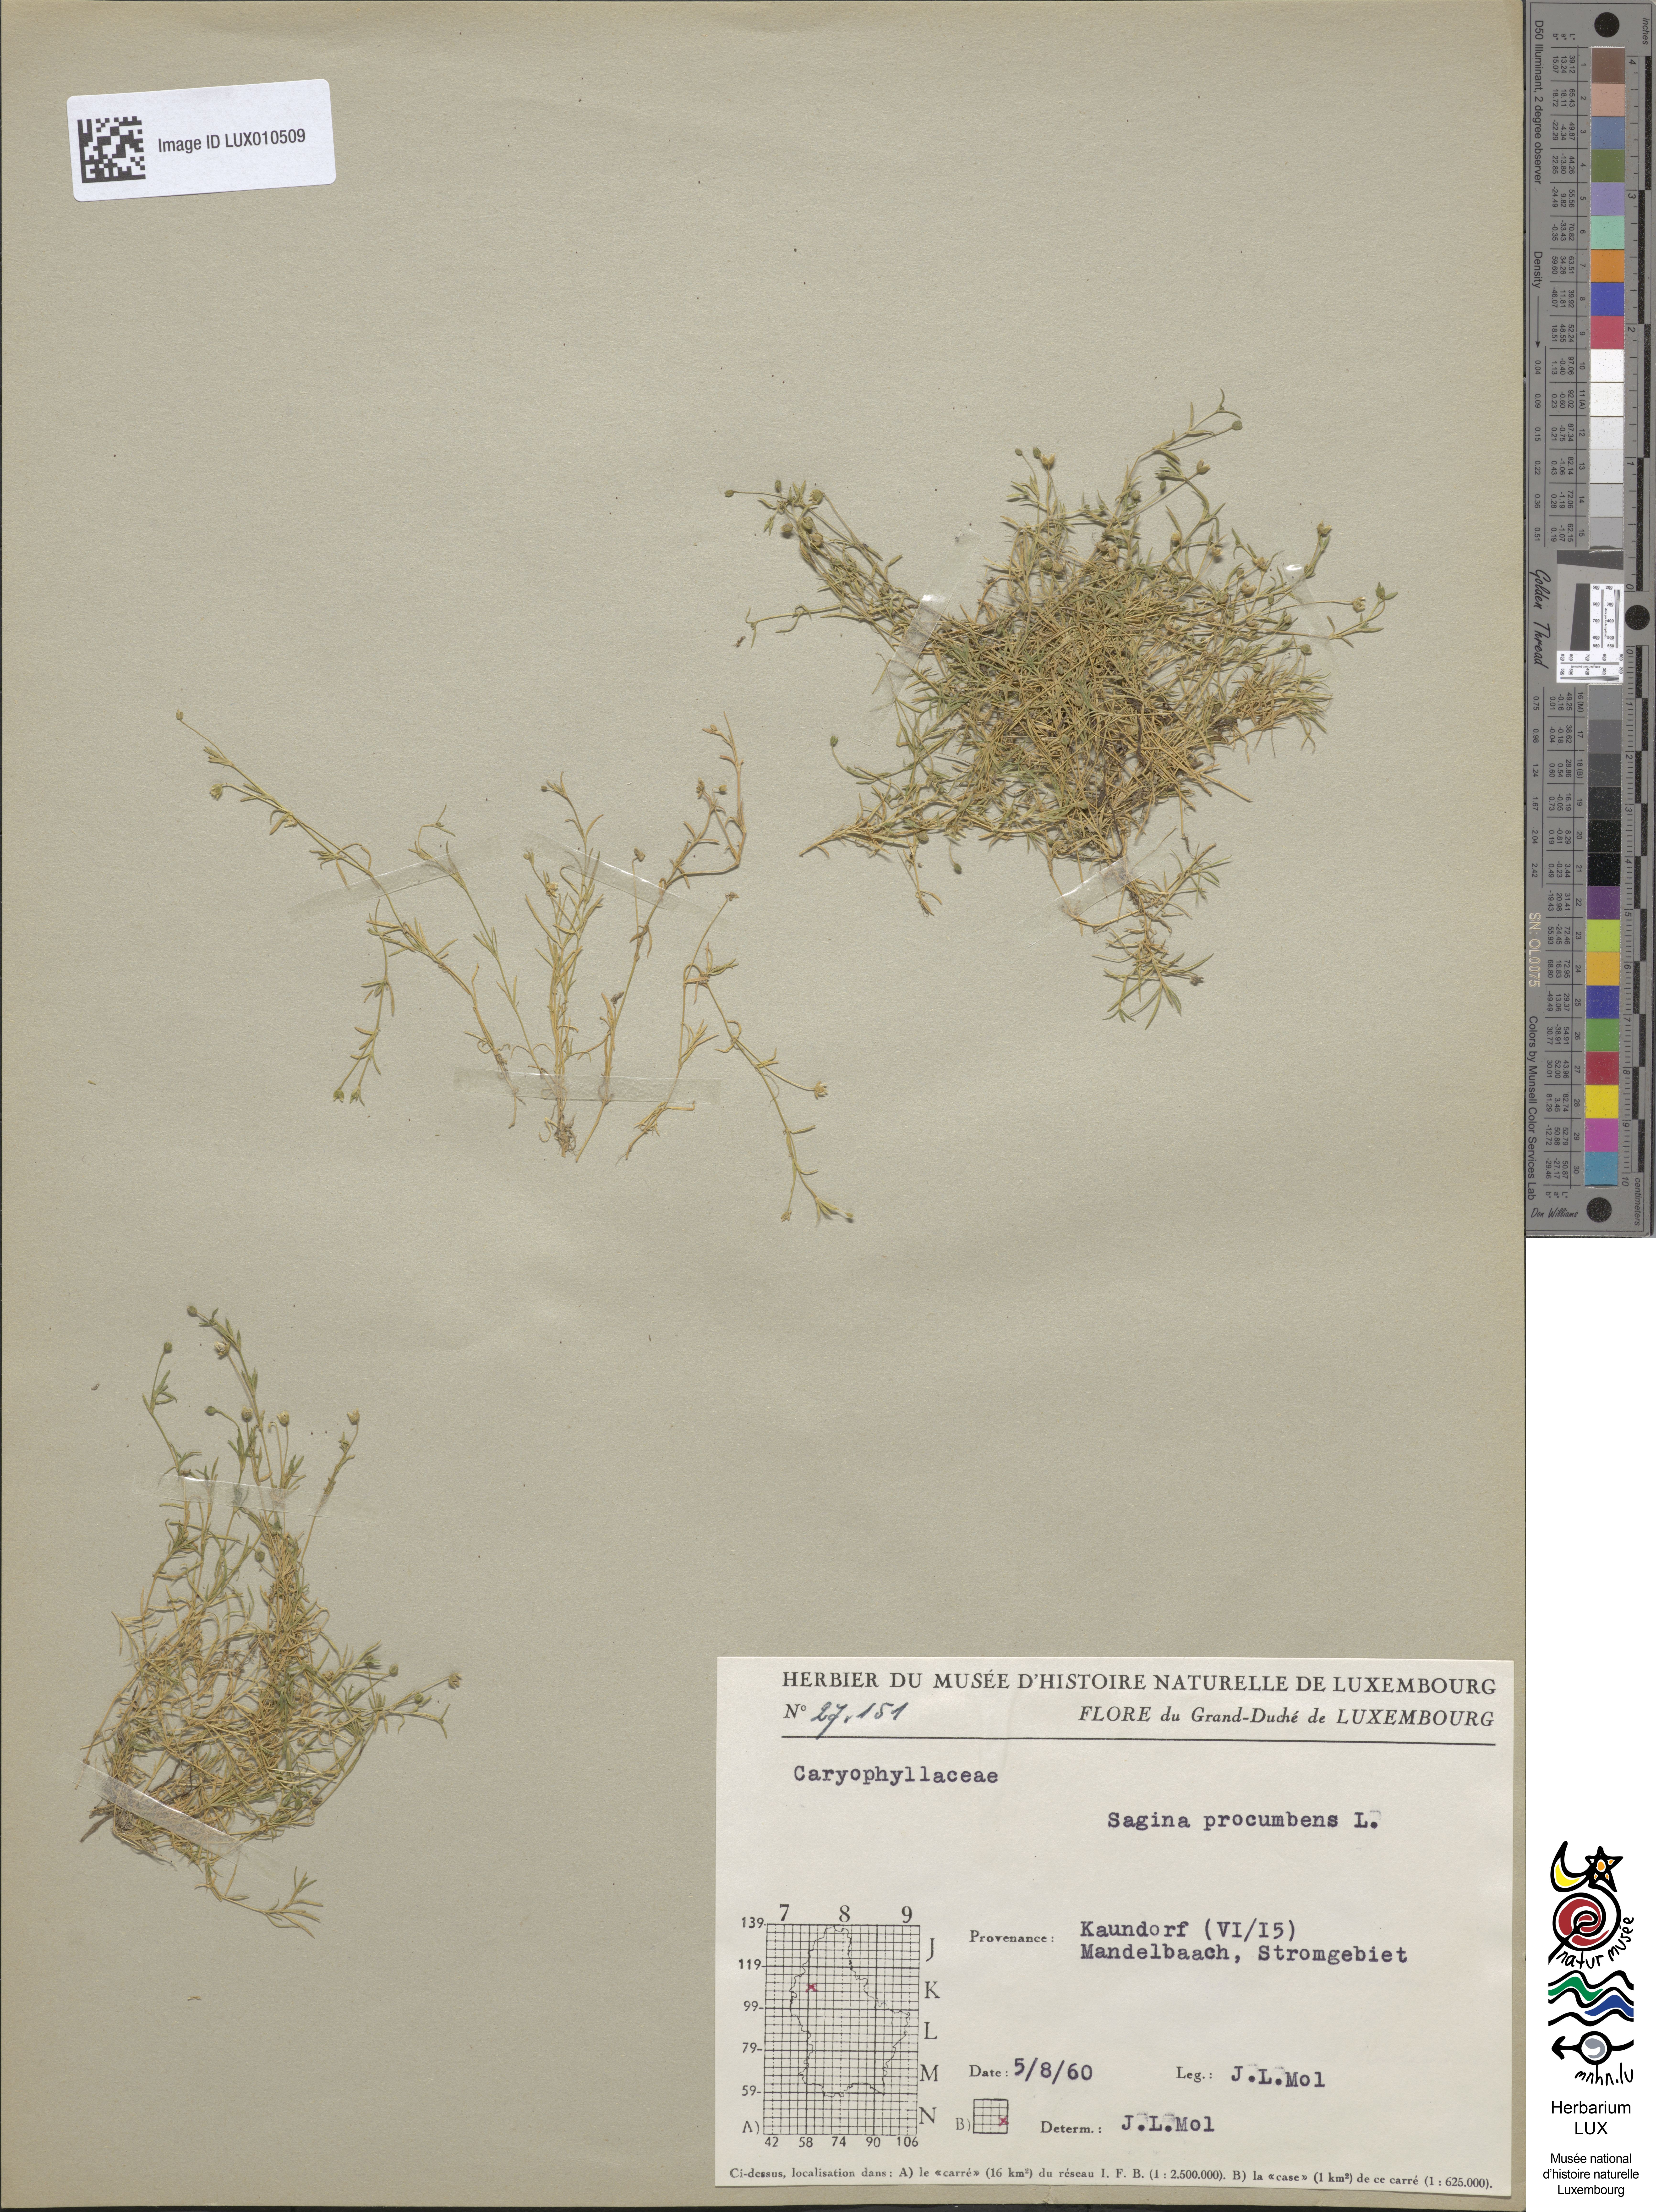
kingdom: Plantae
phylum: Tracheophyta
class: Magnoliopsida
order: Caryophyllales
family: Caryophyllaceae
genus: Sagina
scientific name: Sagina procumbens
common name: Procumbent pearlwort
